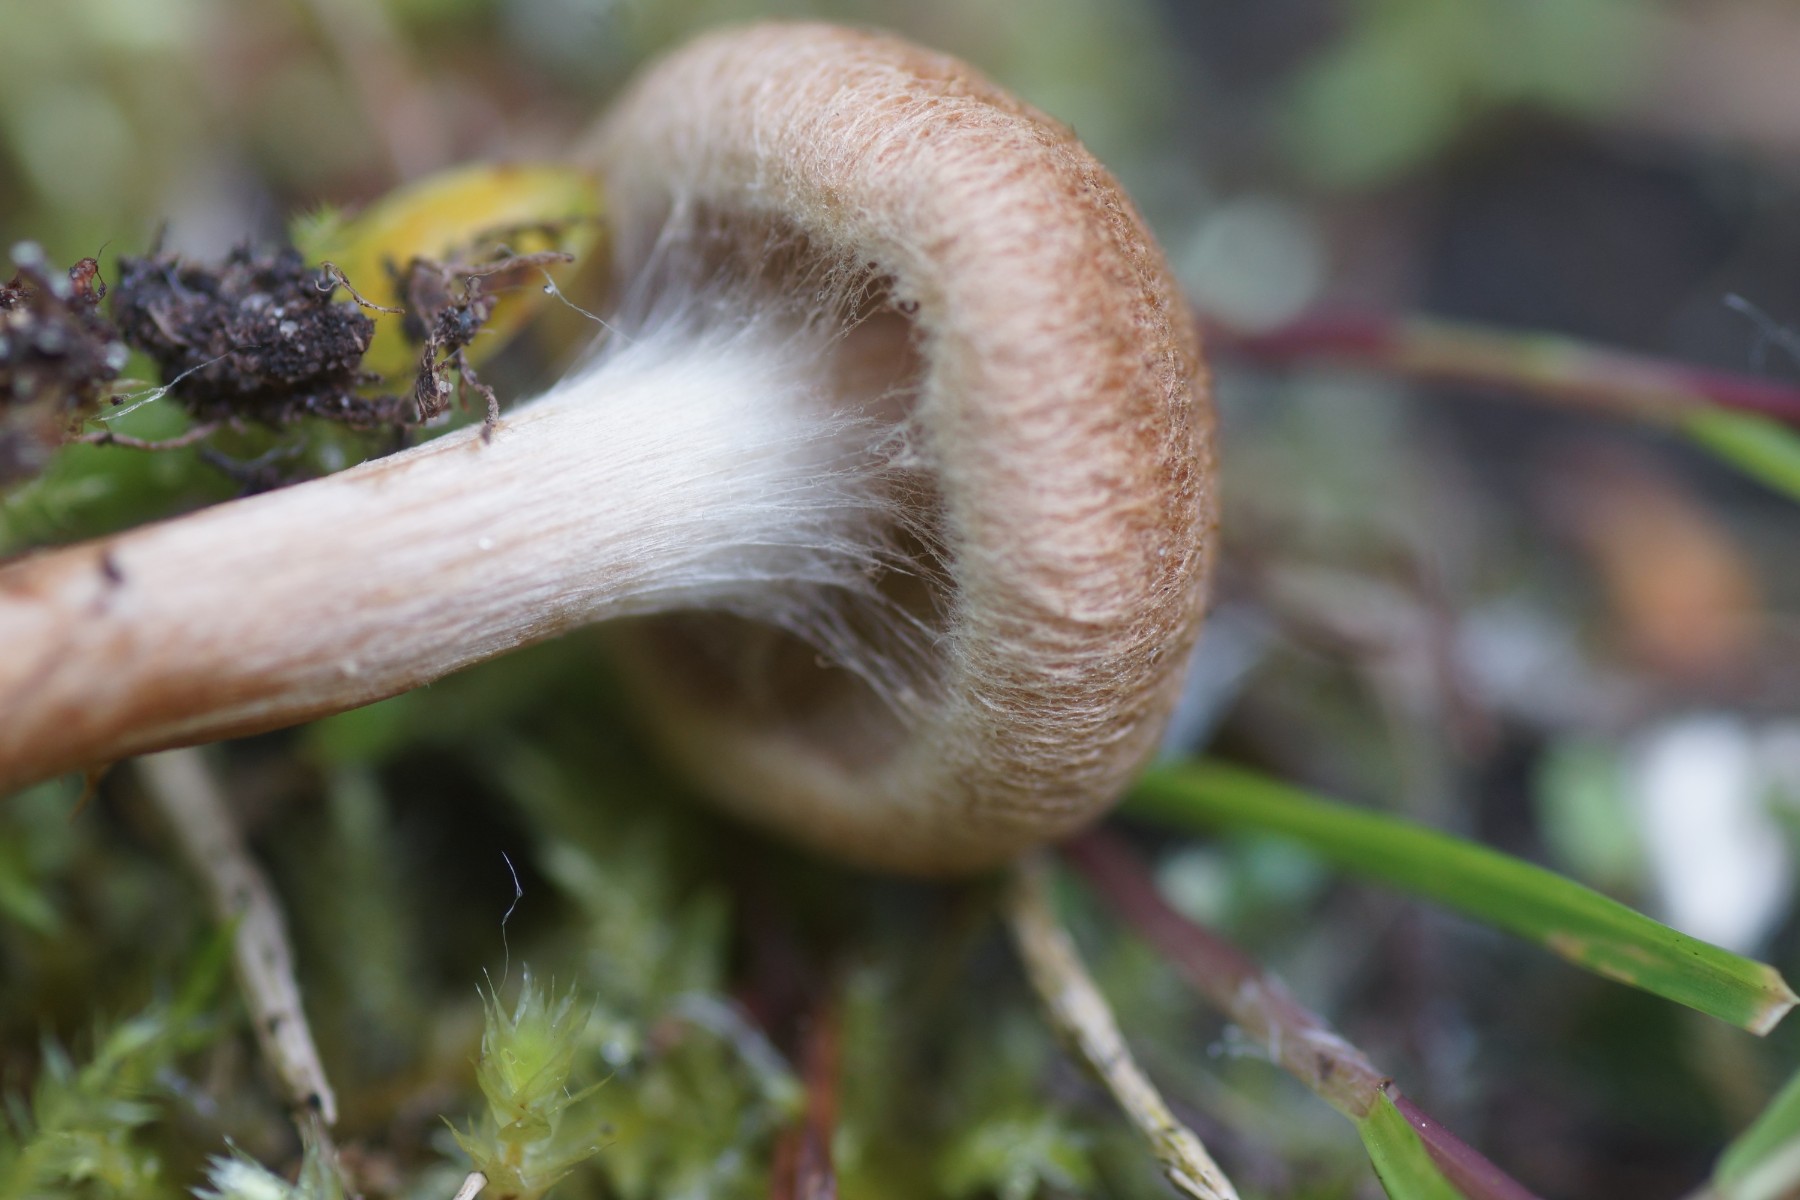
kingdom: Fungi
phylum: Basidiomycota
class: Agaricomycetes
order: Agaricales
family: Inocybaceae
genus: Inocybe
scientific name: Inocybe
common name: trævlhat
